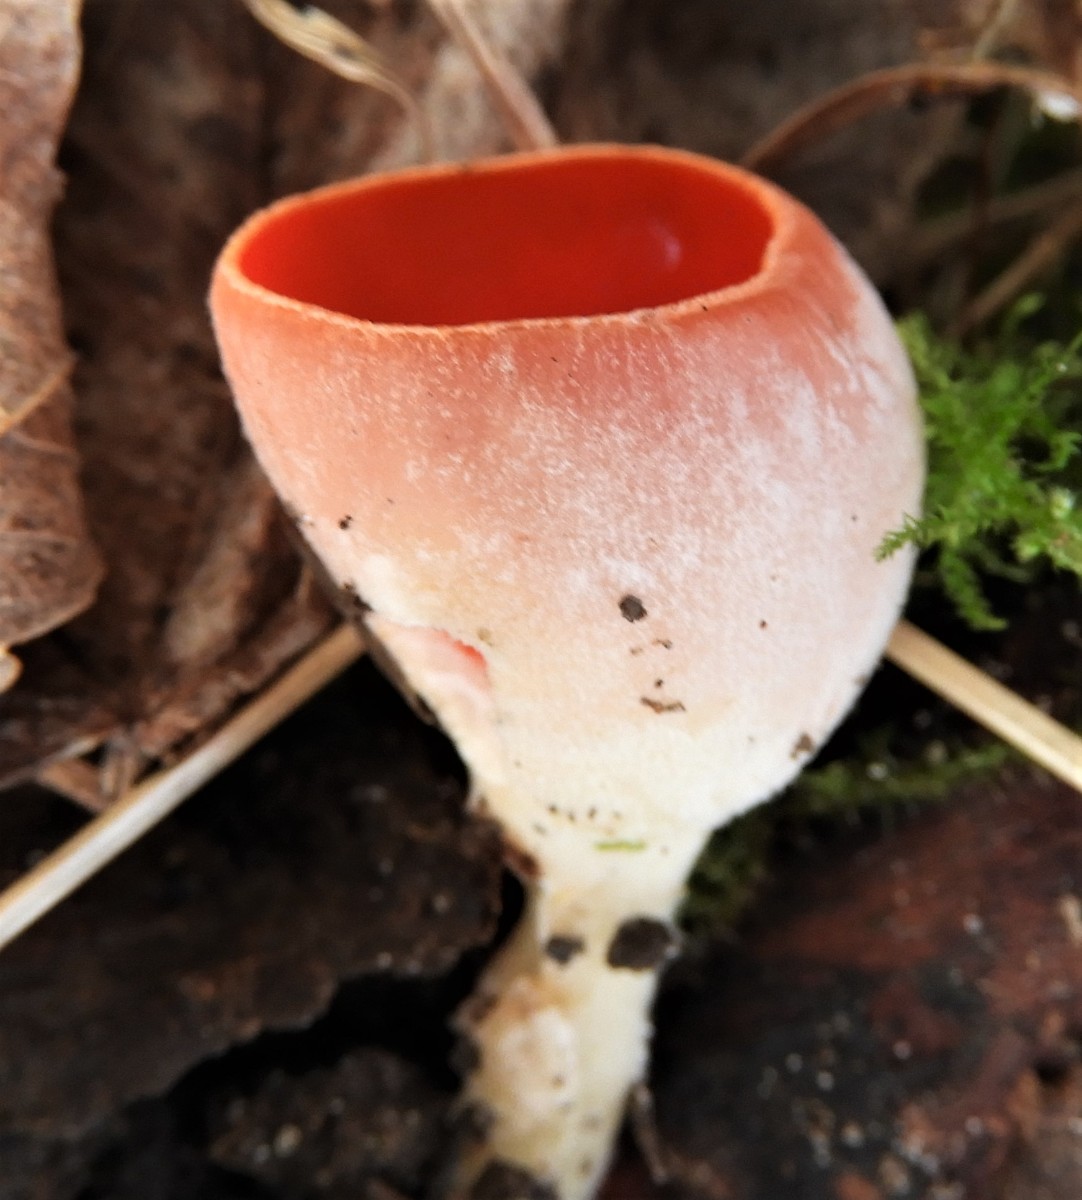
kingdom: Fungi
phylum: Ascomycota
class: Pezizomycetes
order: Pezizales
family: Sarcoscyphaceae
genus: Sarcoscypha
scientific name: Sarcoscypha austriaca
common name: krølhåret pragtbæger
